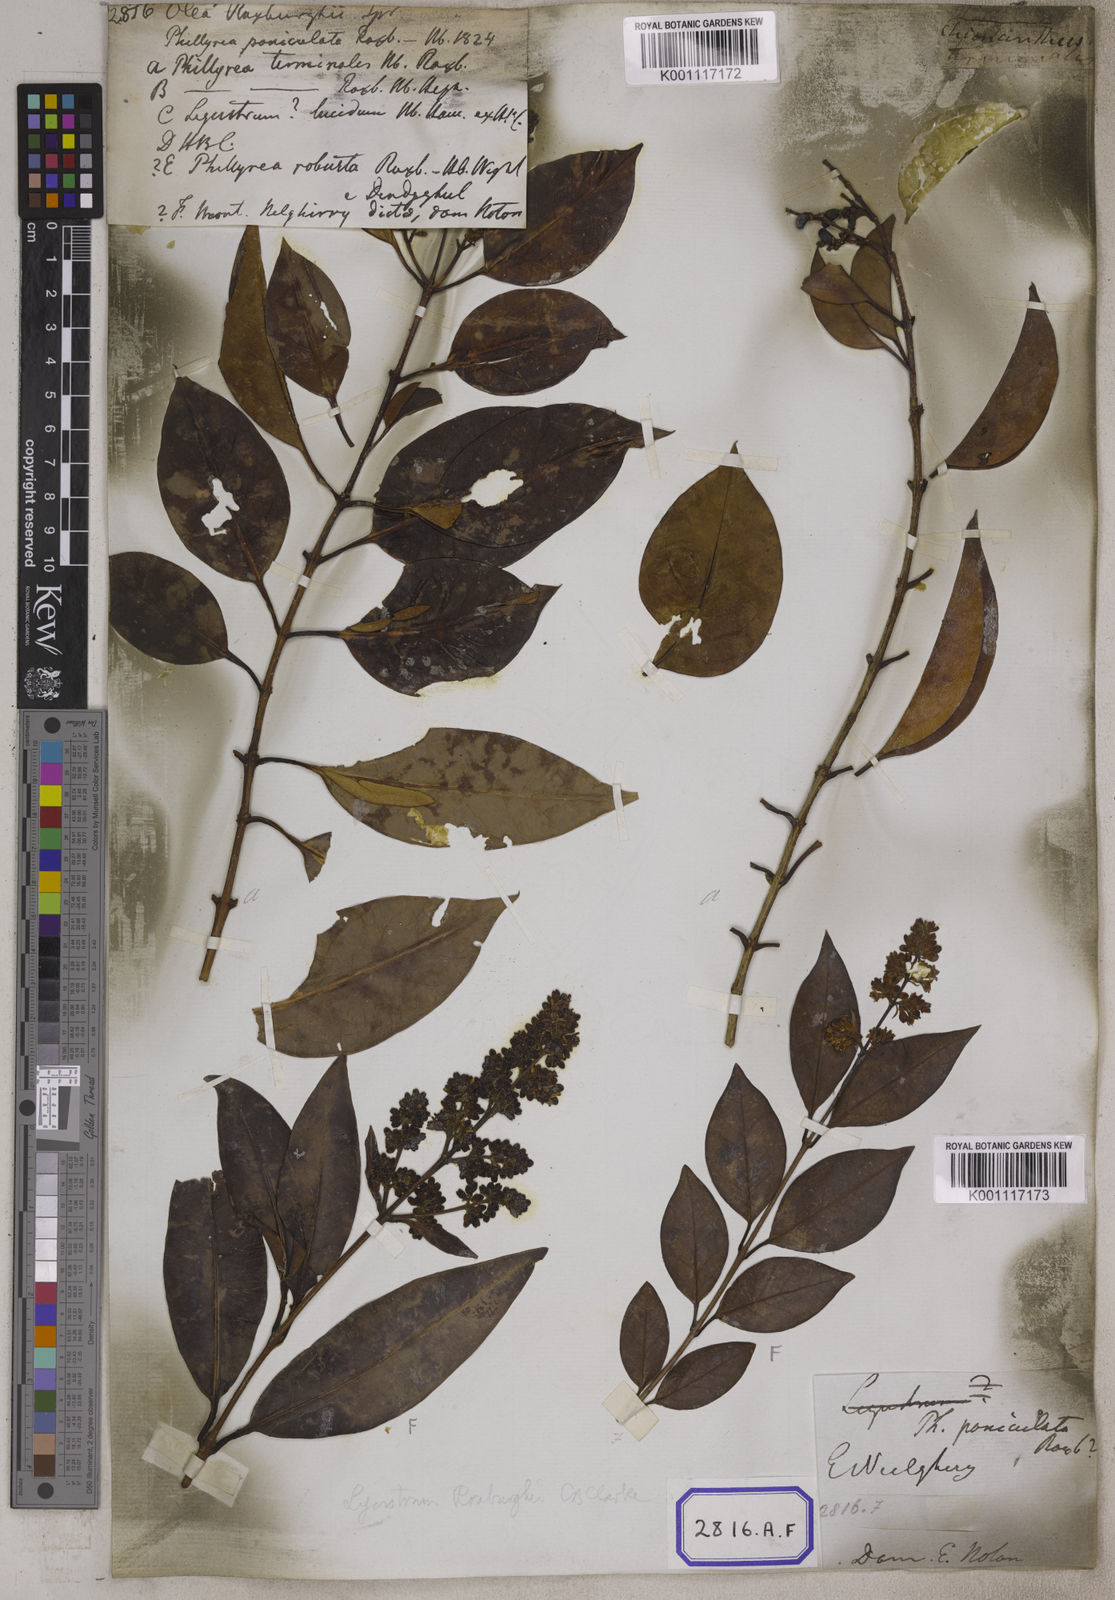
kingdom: Plantae
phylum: Tracheophyta
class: Magnoliopsida
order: Lamiales
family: Oleaceae
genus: Olea
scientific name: Olea
